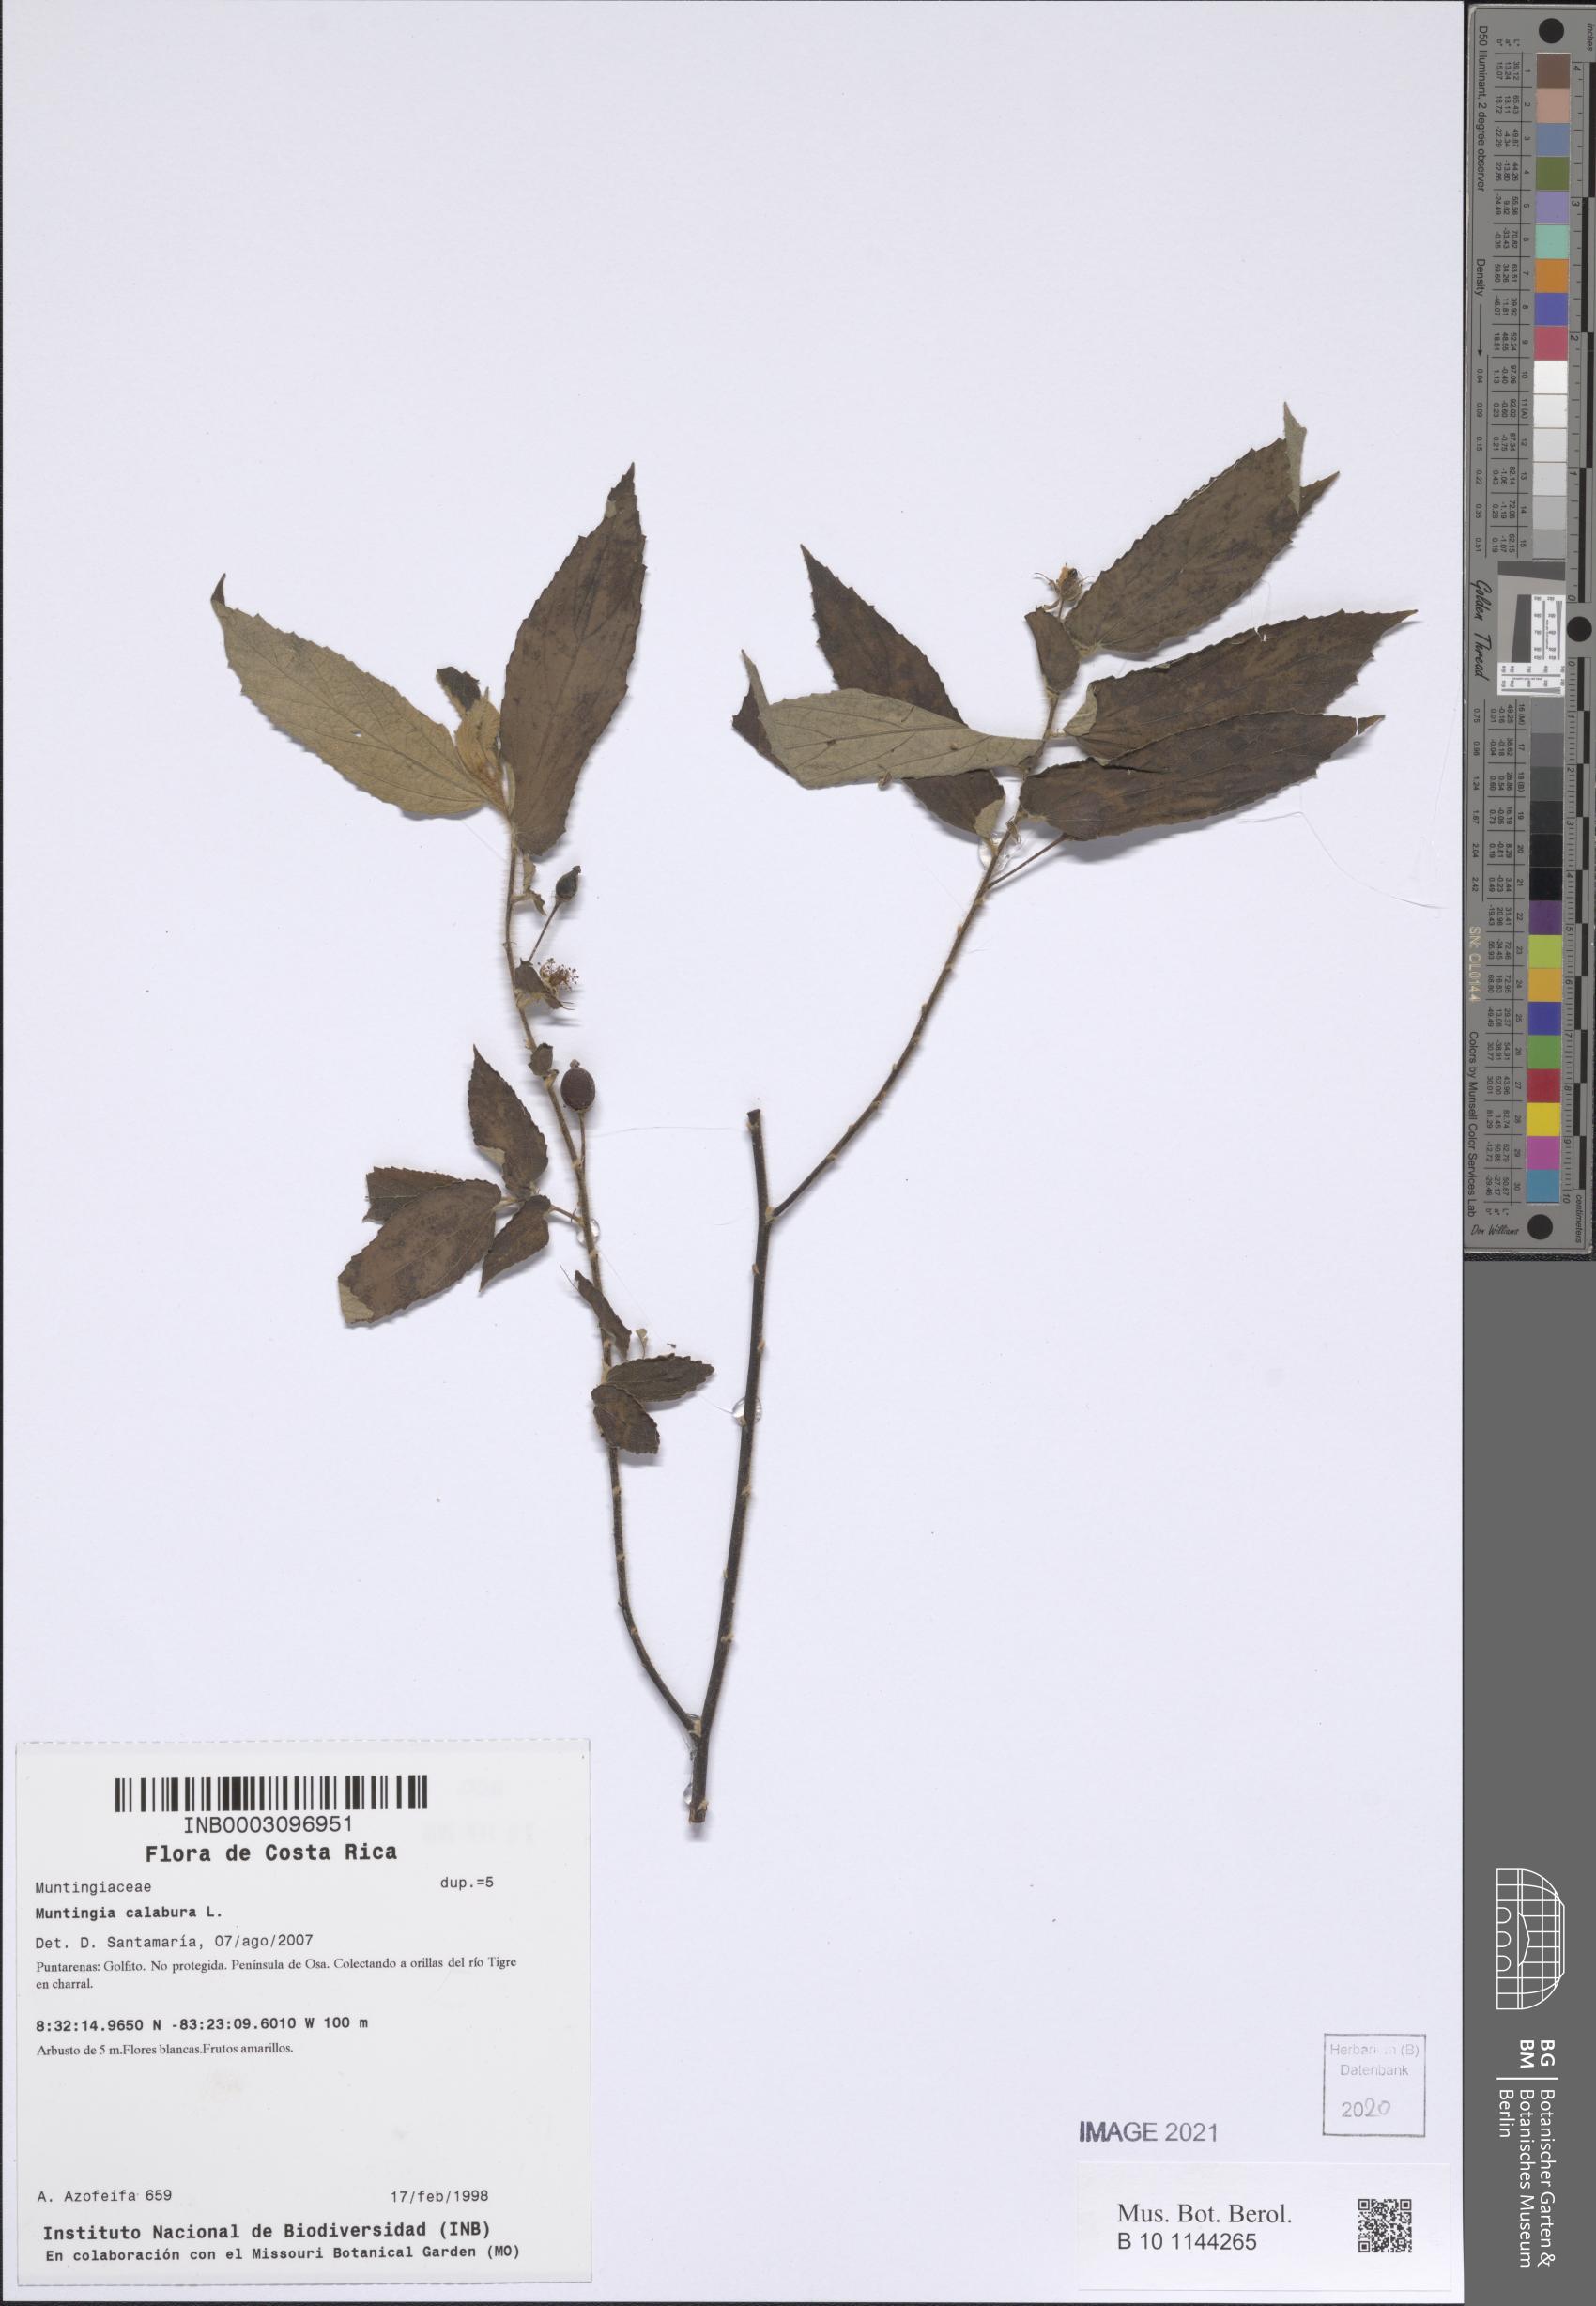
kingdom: Plantae
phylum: Tracheophyta
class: Magnoliopsida
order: Malvales
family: Muntingiaceae
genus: Muntingia
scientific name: Muntingia calabura
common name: Strawberrytree
